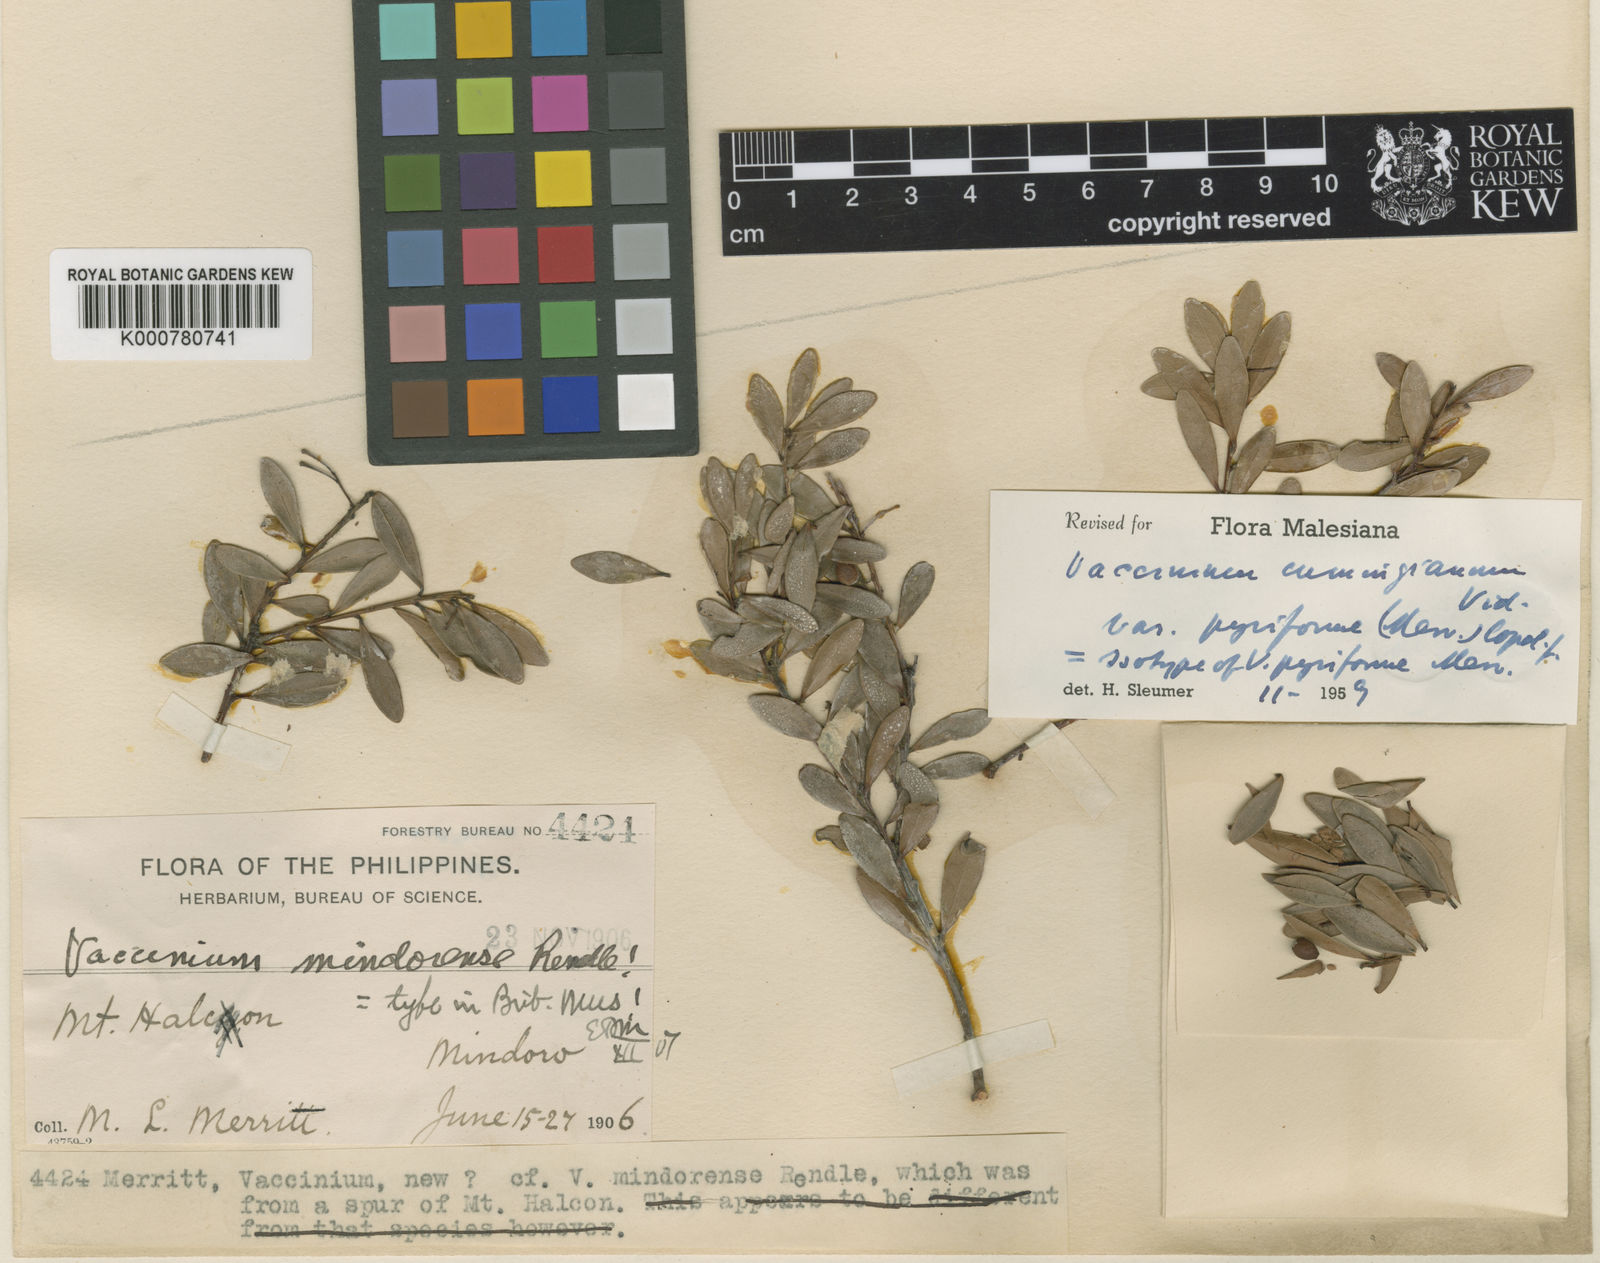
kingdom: Plantae
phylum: Tracheophyta
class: Magnoliopsida
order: Ericales
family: Ericaceae
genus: Vaccinium
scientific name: Vaccinium cumingianum
